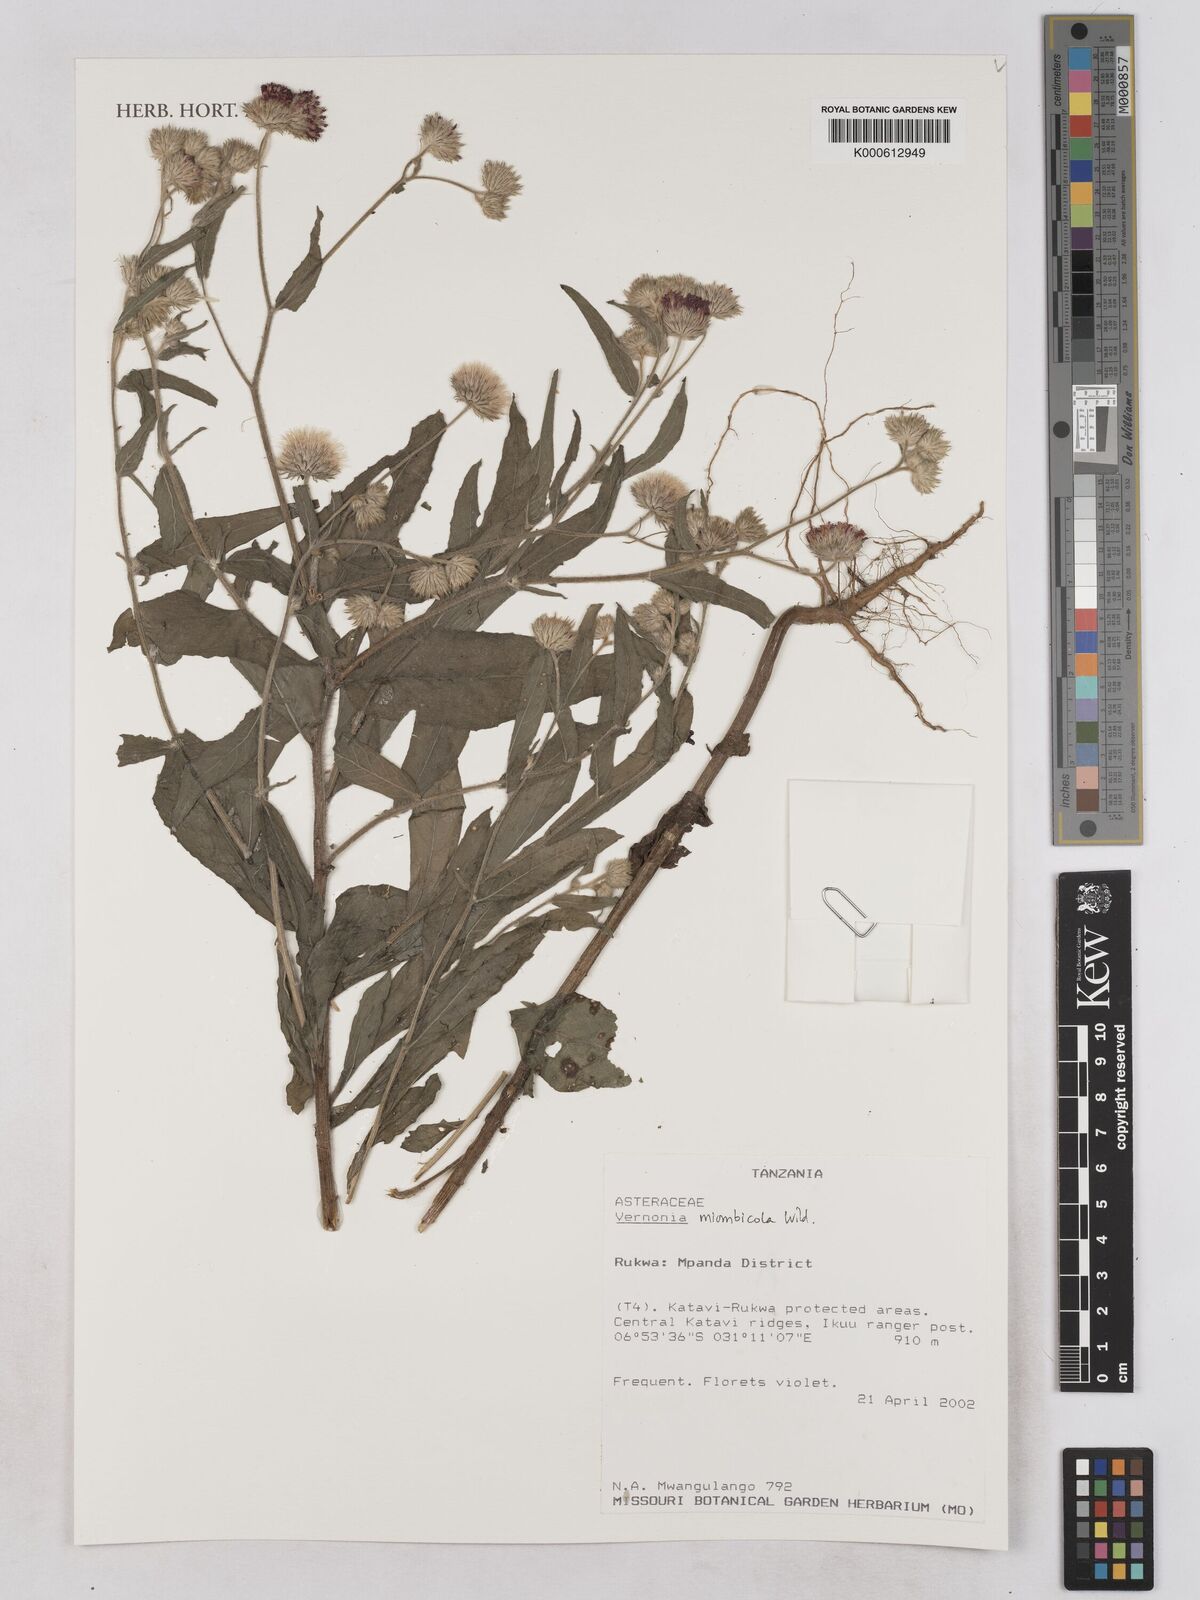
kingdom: Plantae
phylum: Tracheophyta
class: Magnoliopsida
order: Asterales
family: Asteraceae
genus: Vernonia
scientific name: Vernonia miombicola
